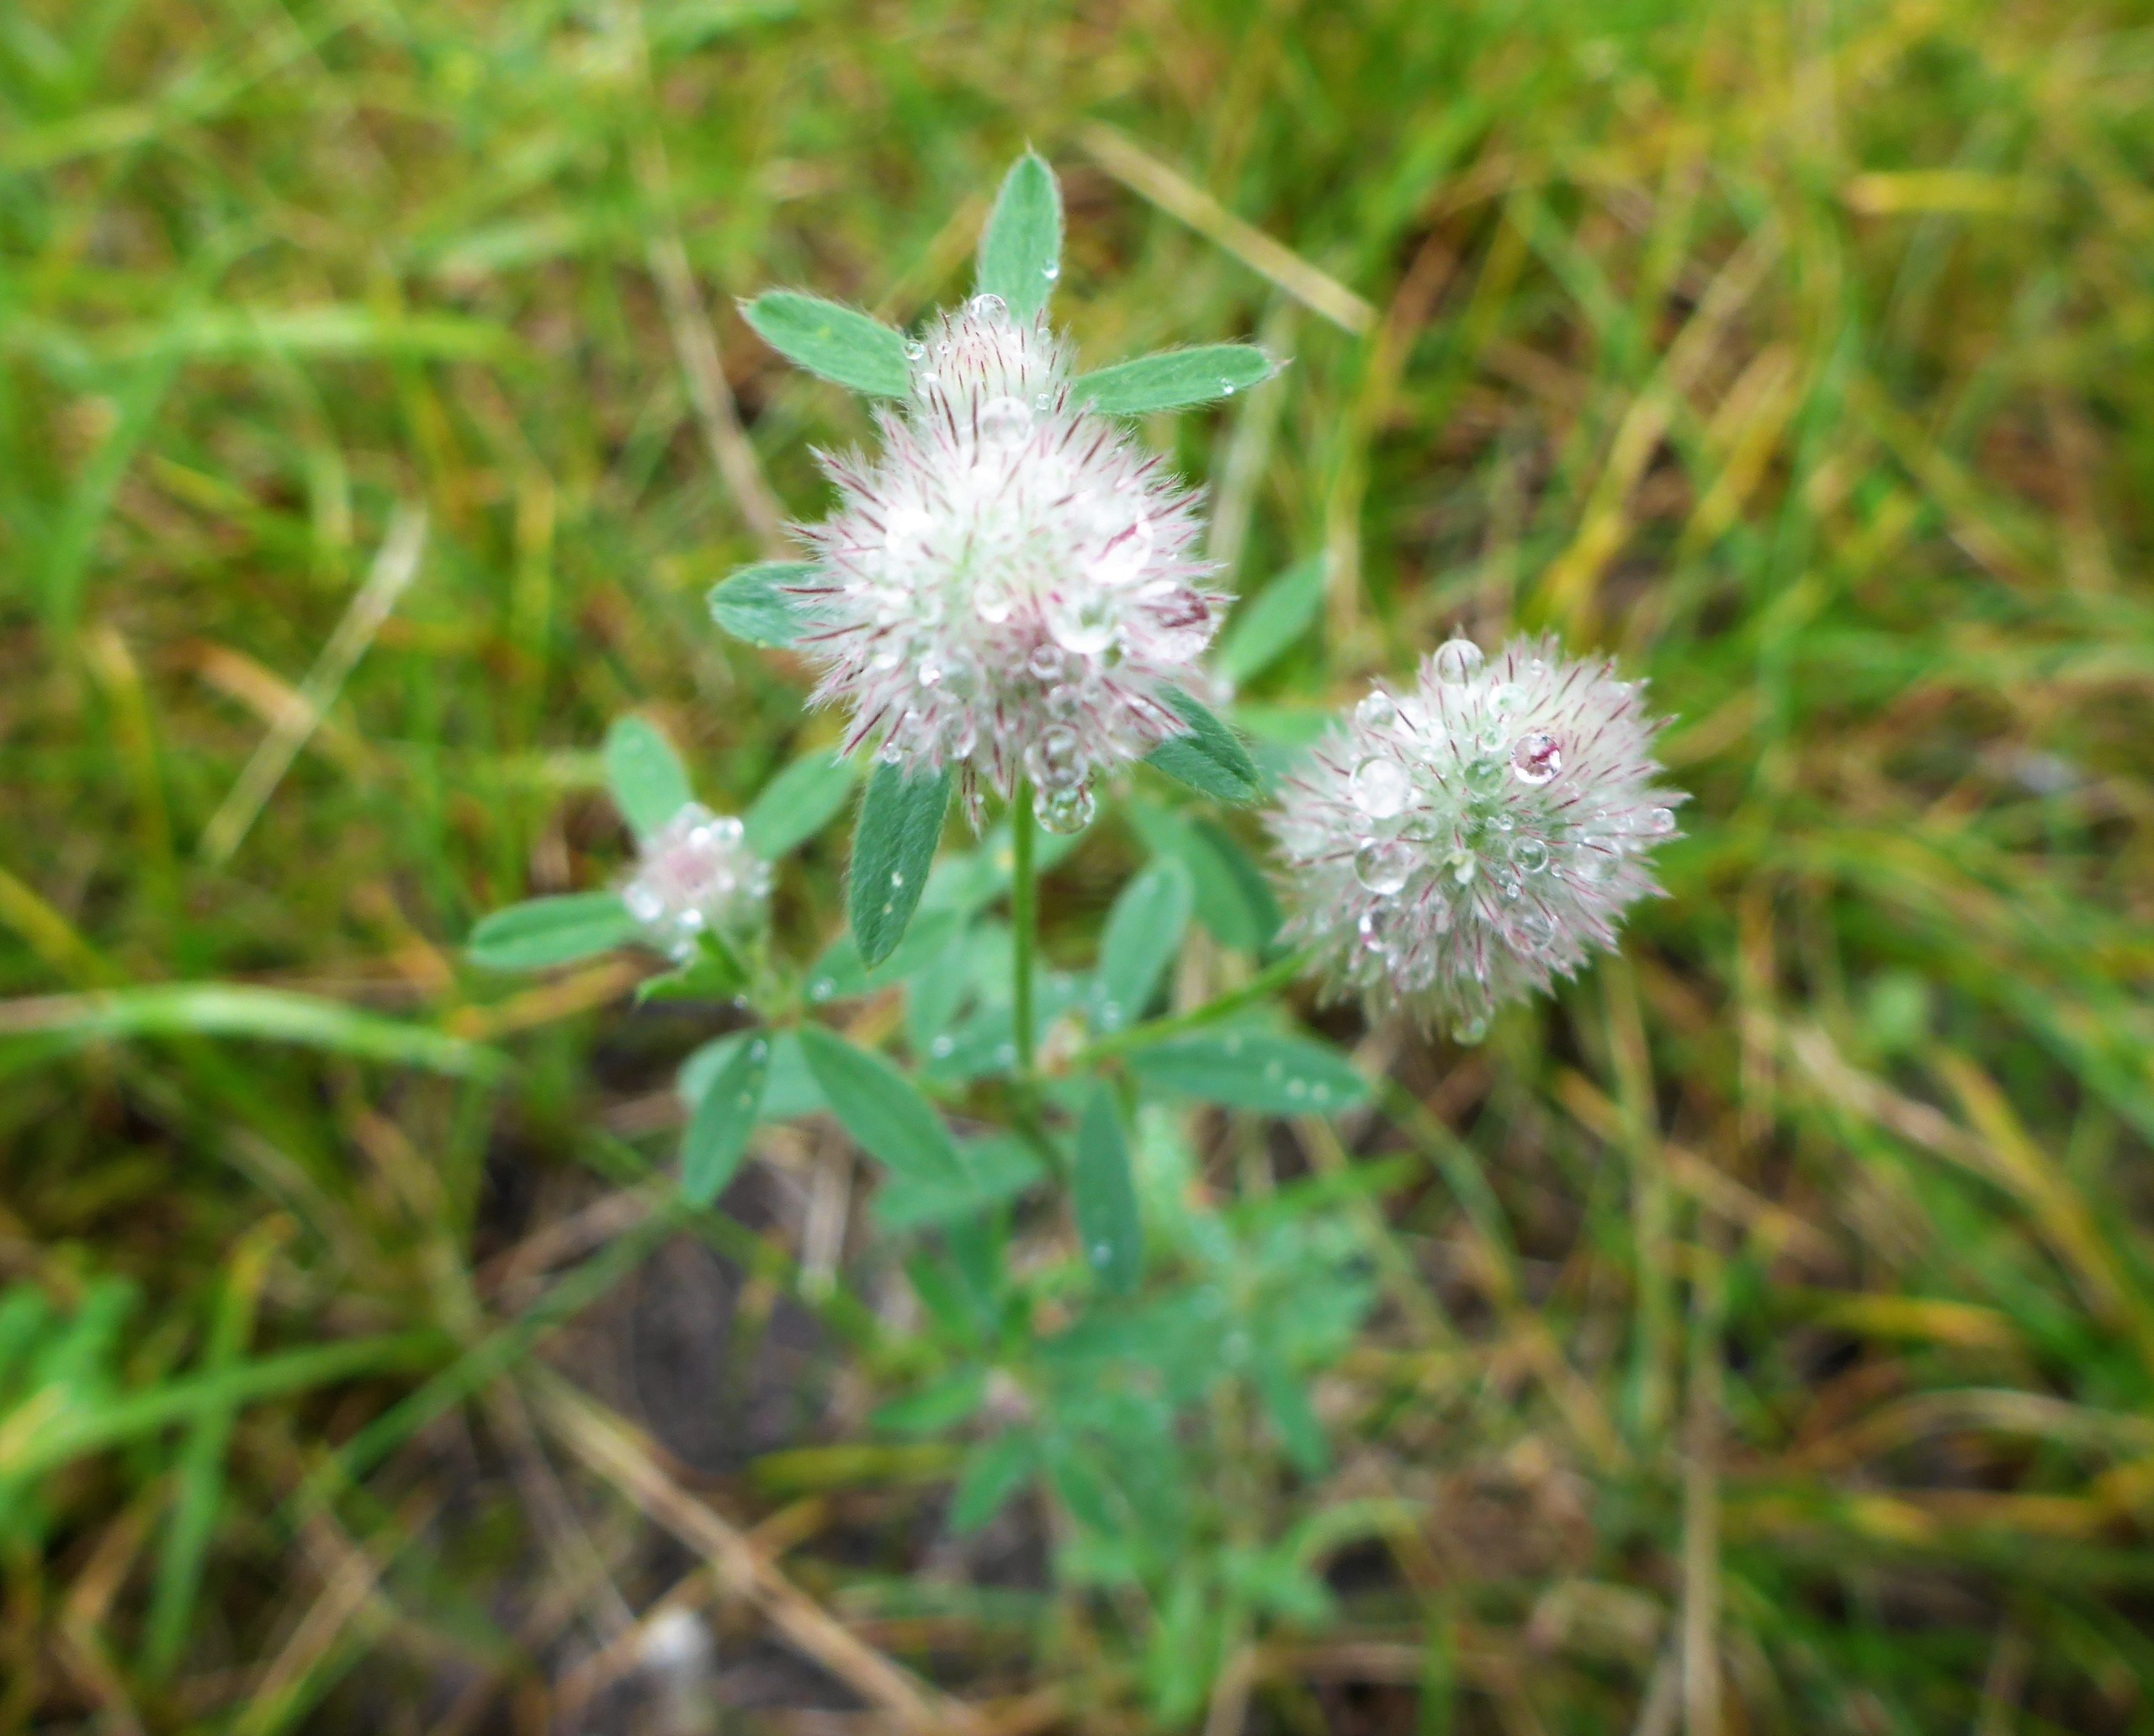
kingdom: Plantae
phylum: Tracheophyta
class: Magnoliopsida
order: Fabales
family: Fabaceae
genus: Trifolium
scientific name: Trifolium arvense
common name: Hare-kløver
